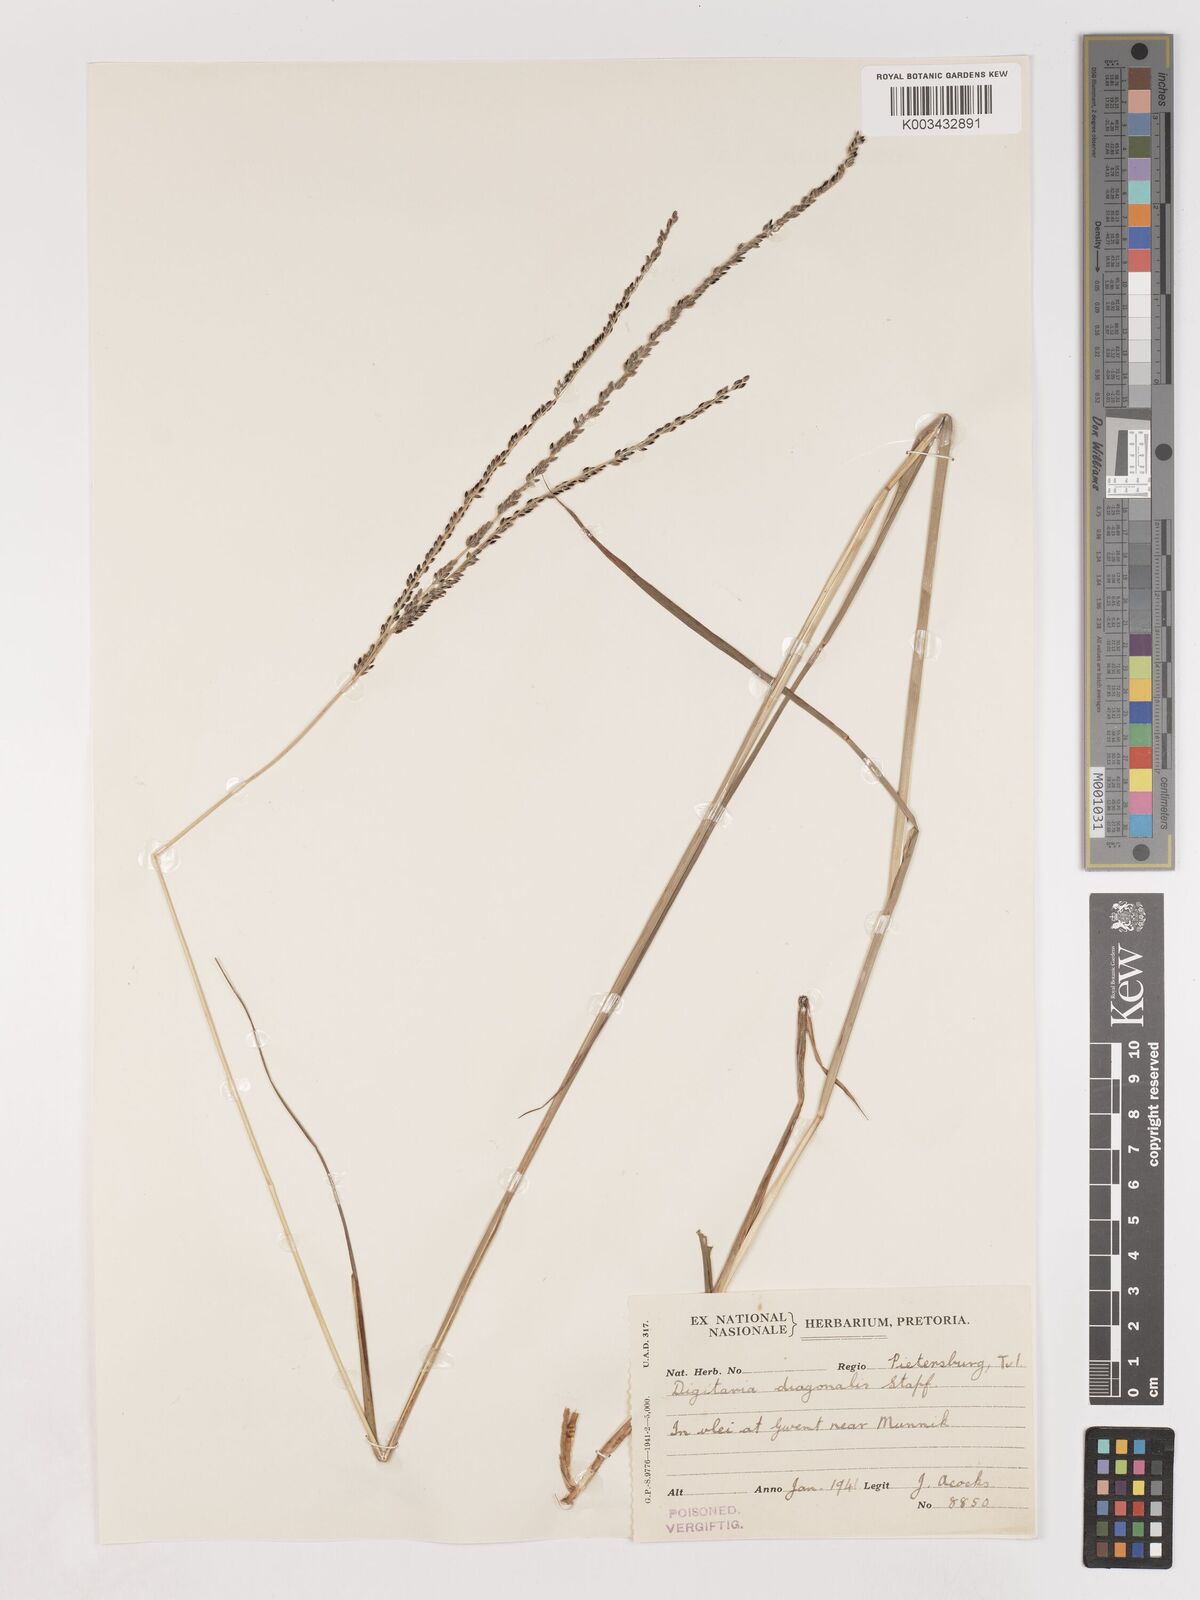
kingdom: Plantae
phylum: Tracheophyta
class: Liliopsida
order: Poales
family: Poaceae
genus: Digitaria
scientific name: Digitaria eylesii
